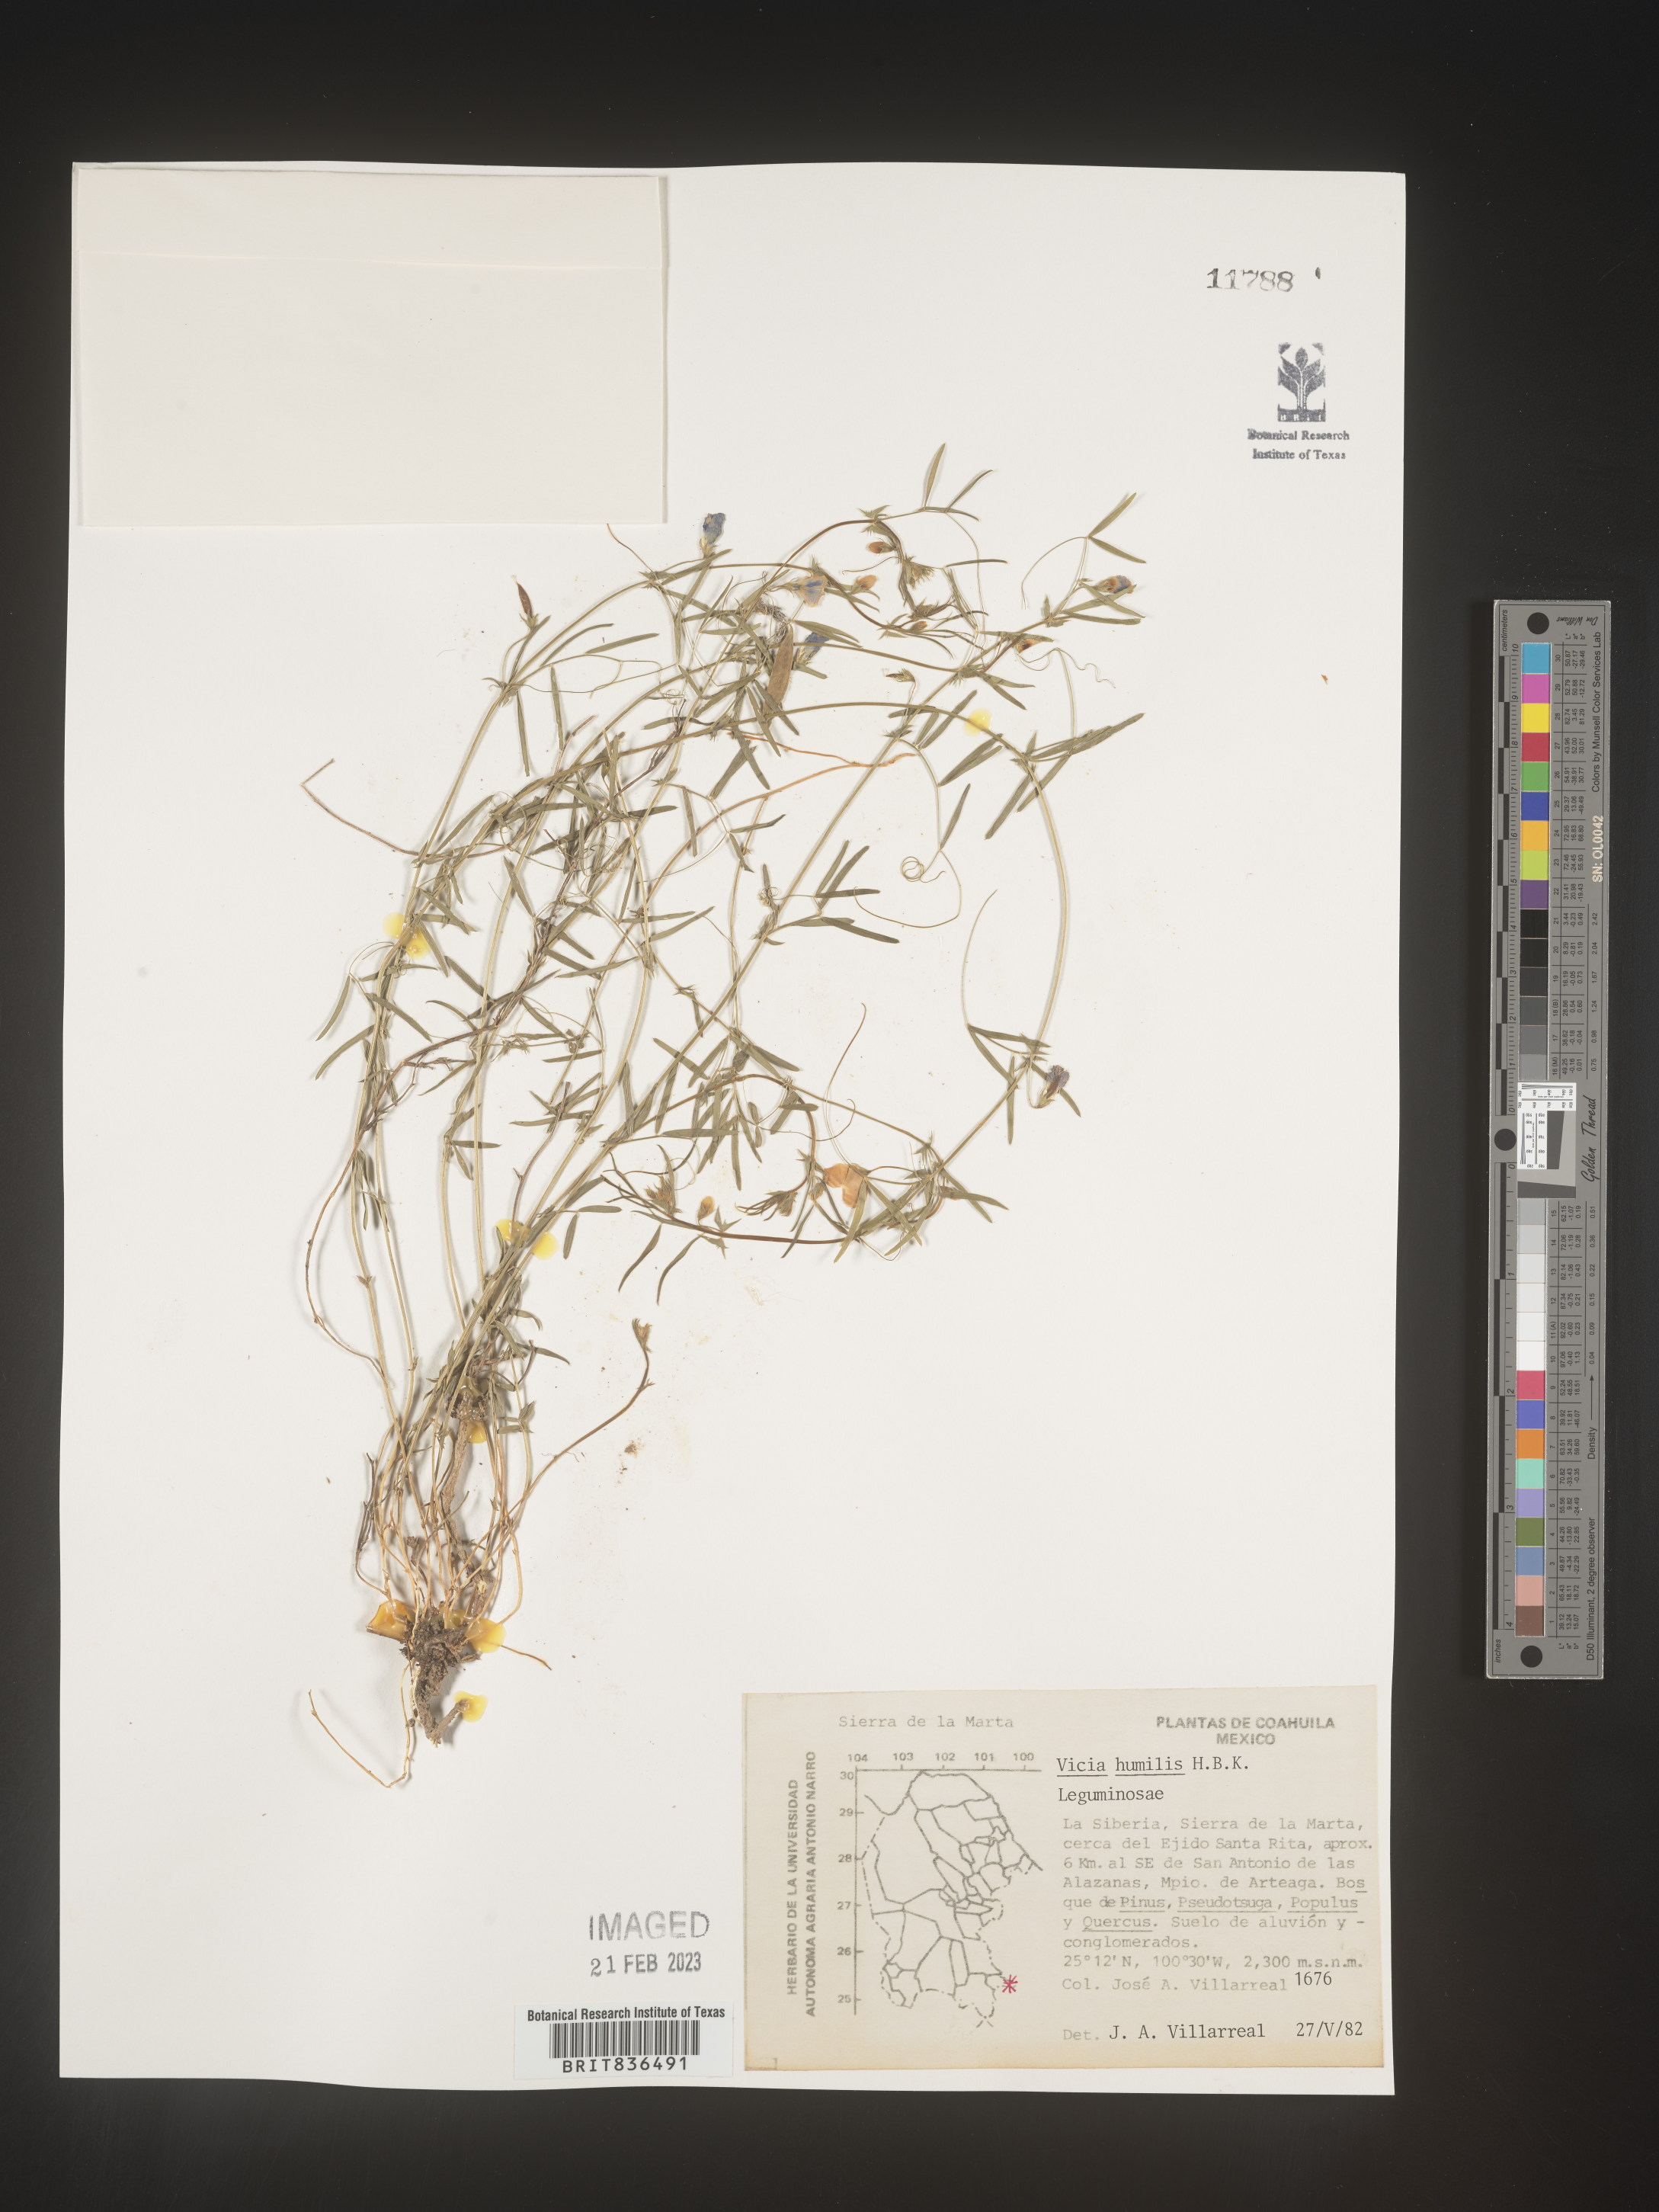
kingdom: Plantae
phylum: Tracheophyta
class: Magnoliopsida
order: Fabales
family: Fabaceae
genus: Vicia
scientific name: Vicia
